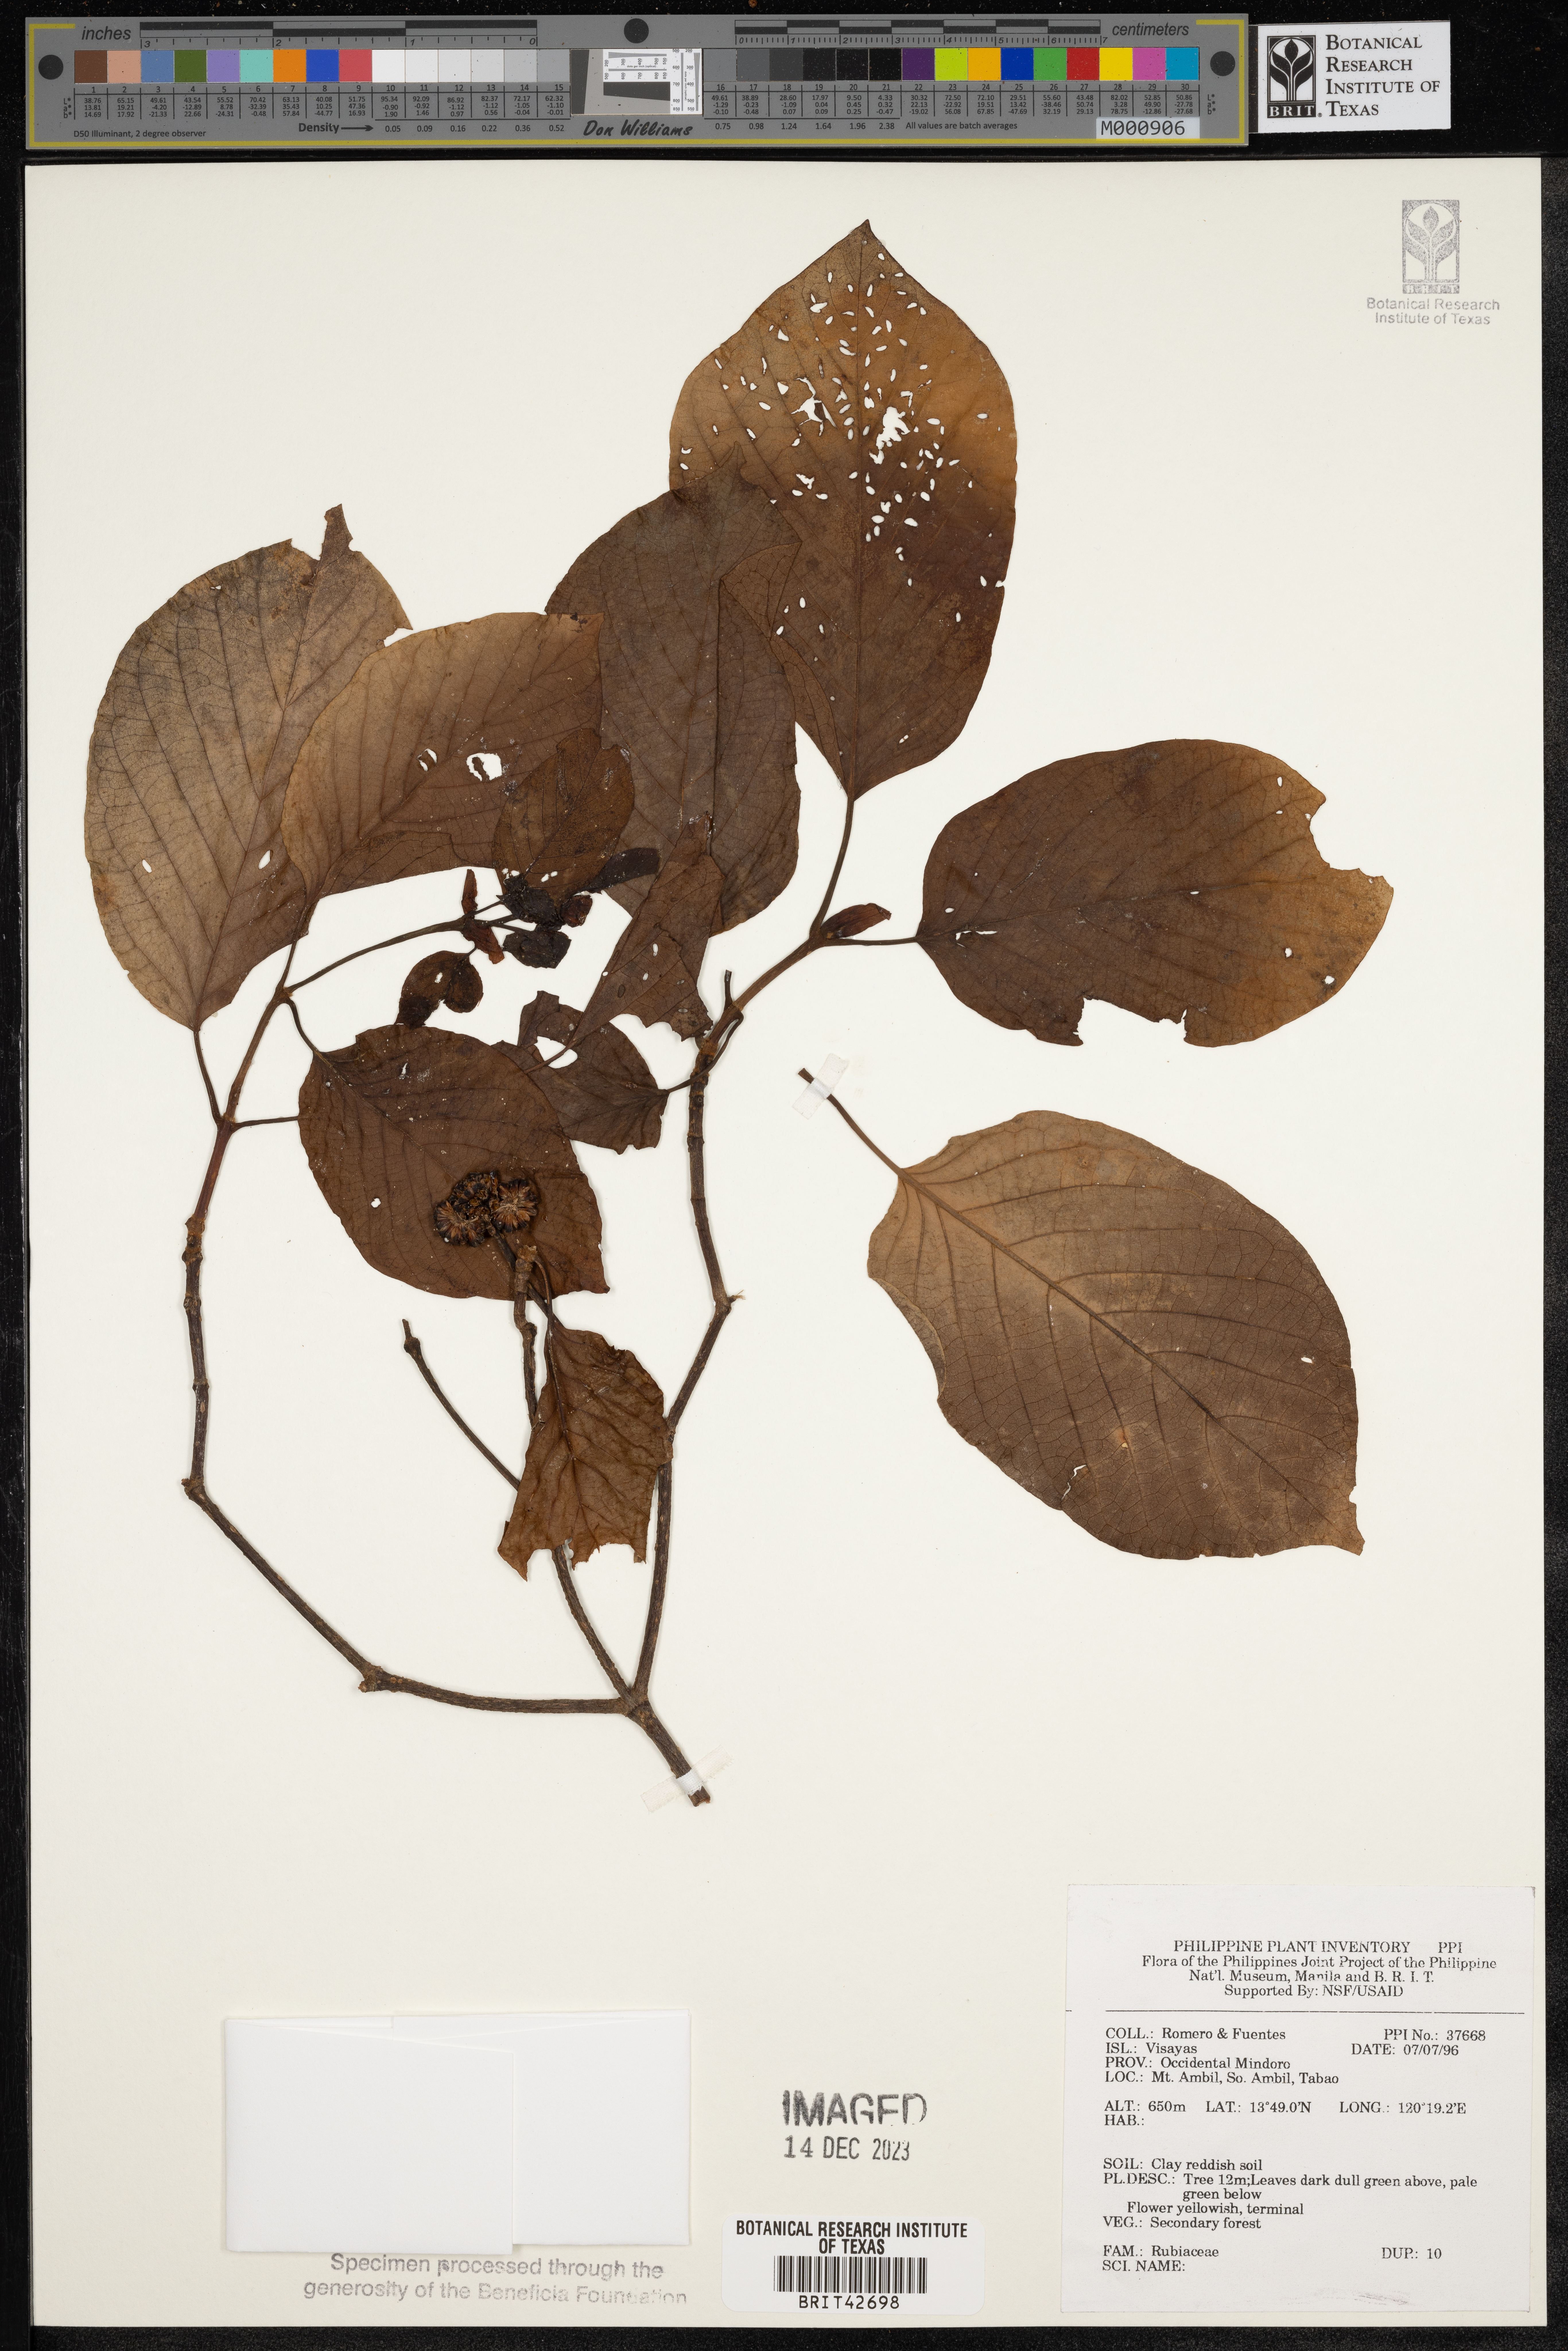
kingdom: Plantae
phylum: Tracheophyta
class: Magnoliopsida
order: Gentianales
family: Rubiaceae
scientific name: Rubiaceae
